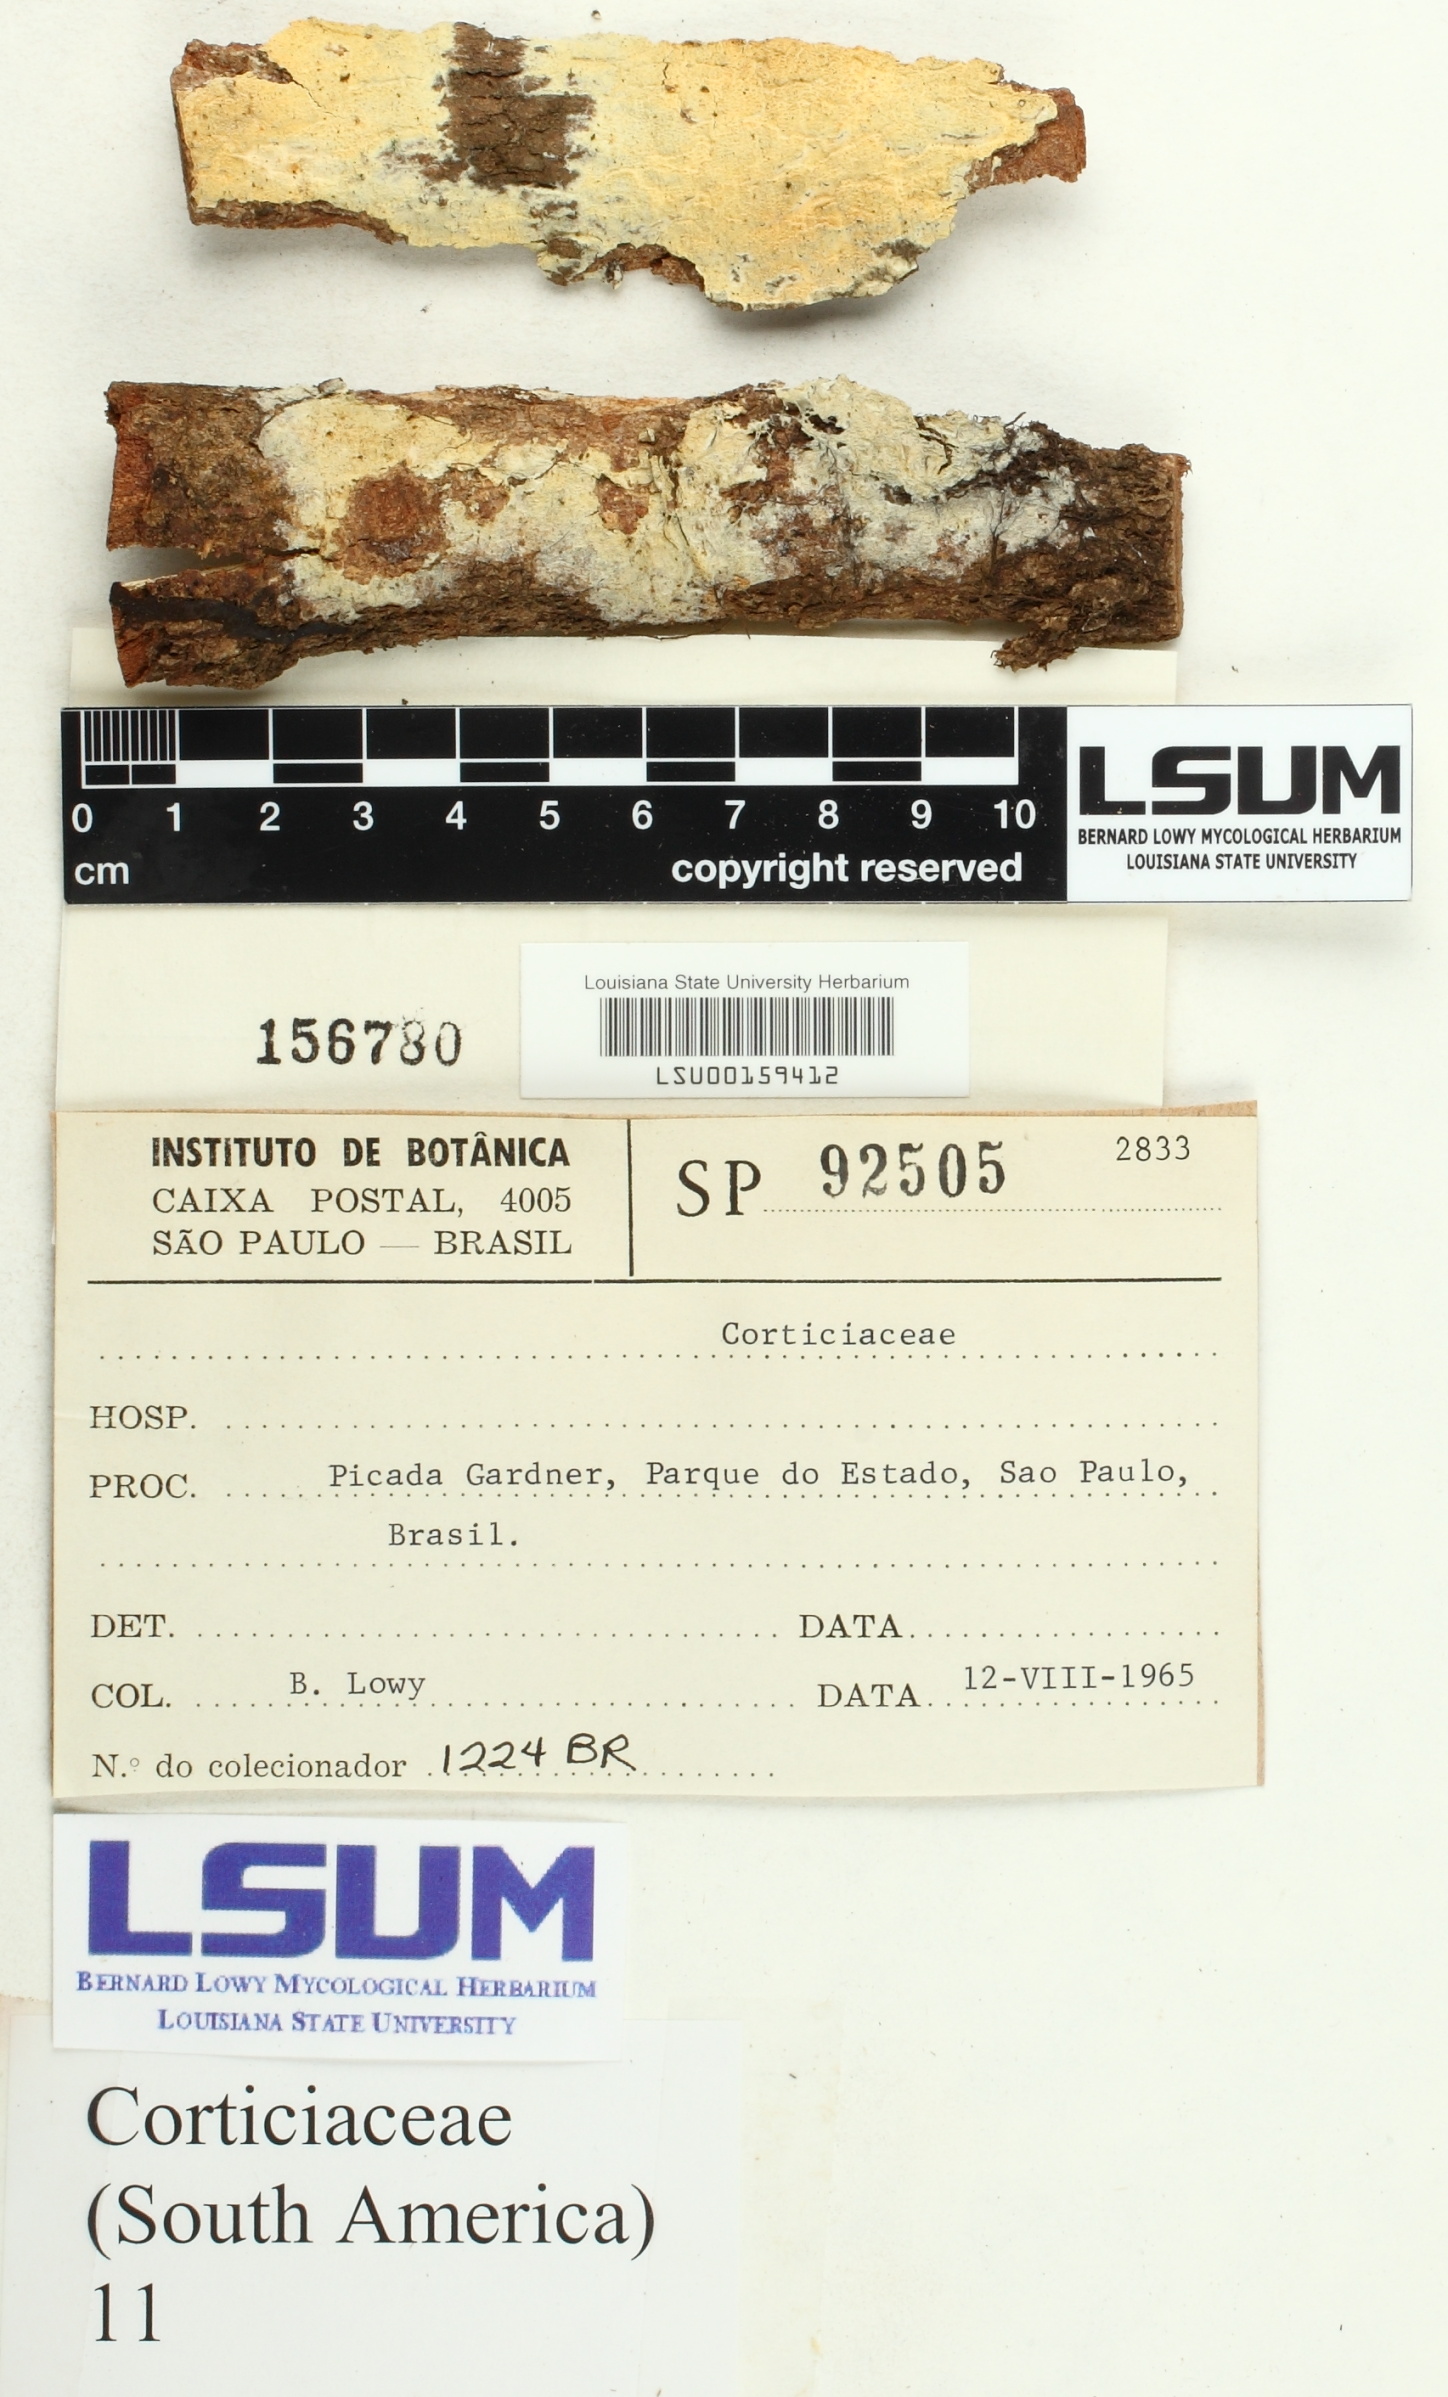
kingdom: Fungi
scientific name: Fungi
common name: Fungi
